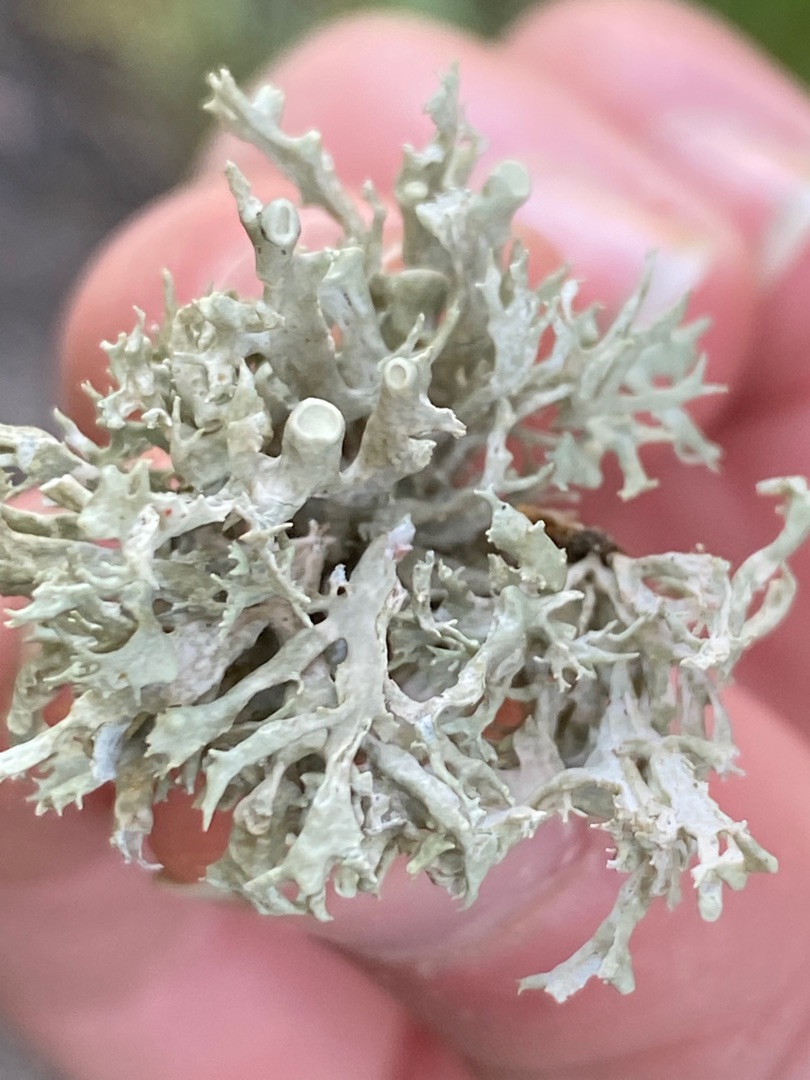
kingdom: Fungi
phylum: Ascomycota
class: Lecanoromycetes
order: Lecanorales
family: Ramalinaceae
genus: Ramalina
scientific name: Ramalina fastigiata
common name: Tue-grenlav
